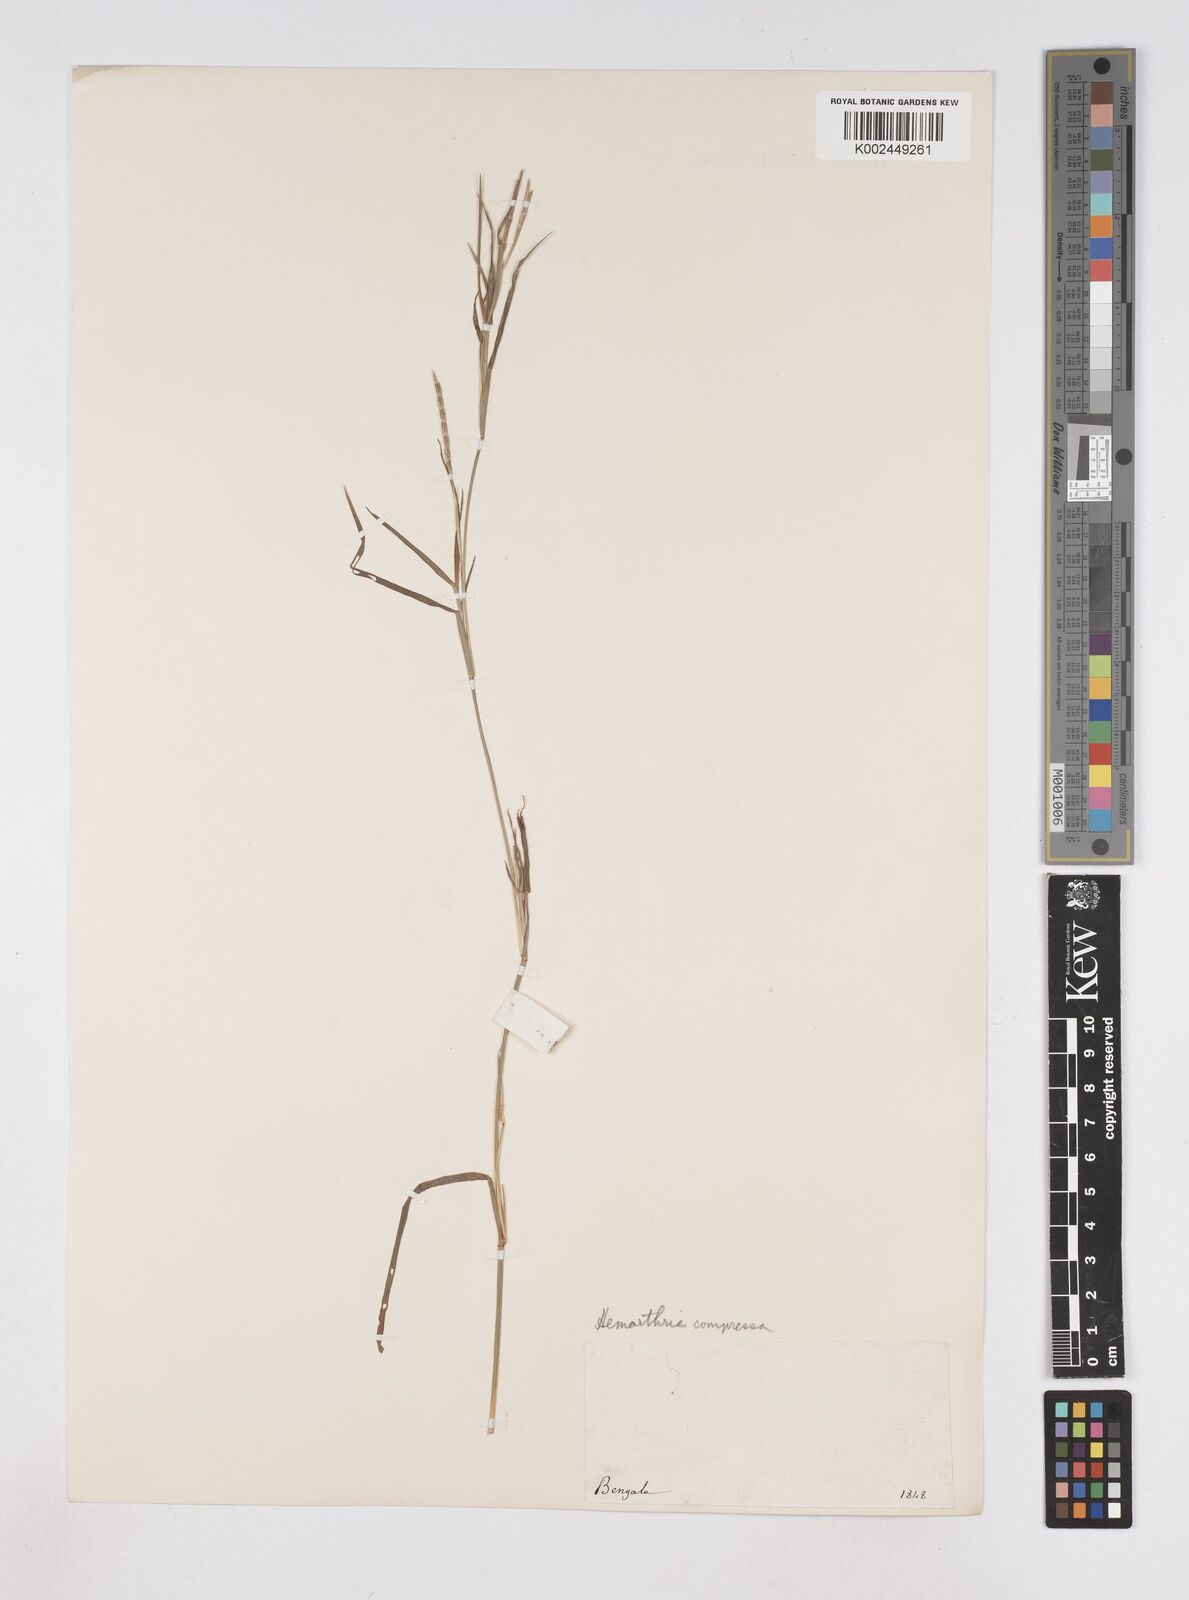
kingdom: Plantae
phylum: Tracheophyta
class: Liliopsida
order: Poales
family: Poaceae
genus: Hemarthria
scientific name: Hemarthria compressa
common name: Whip grass
